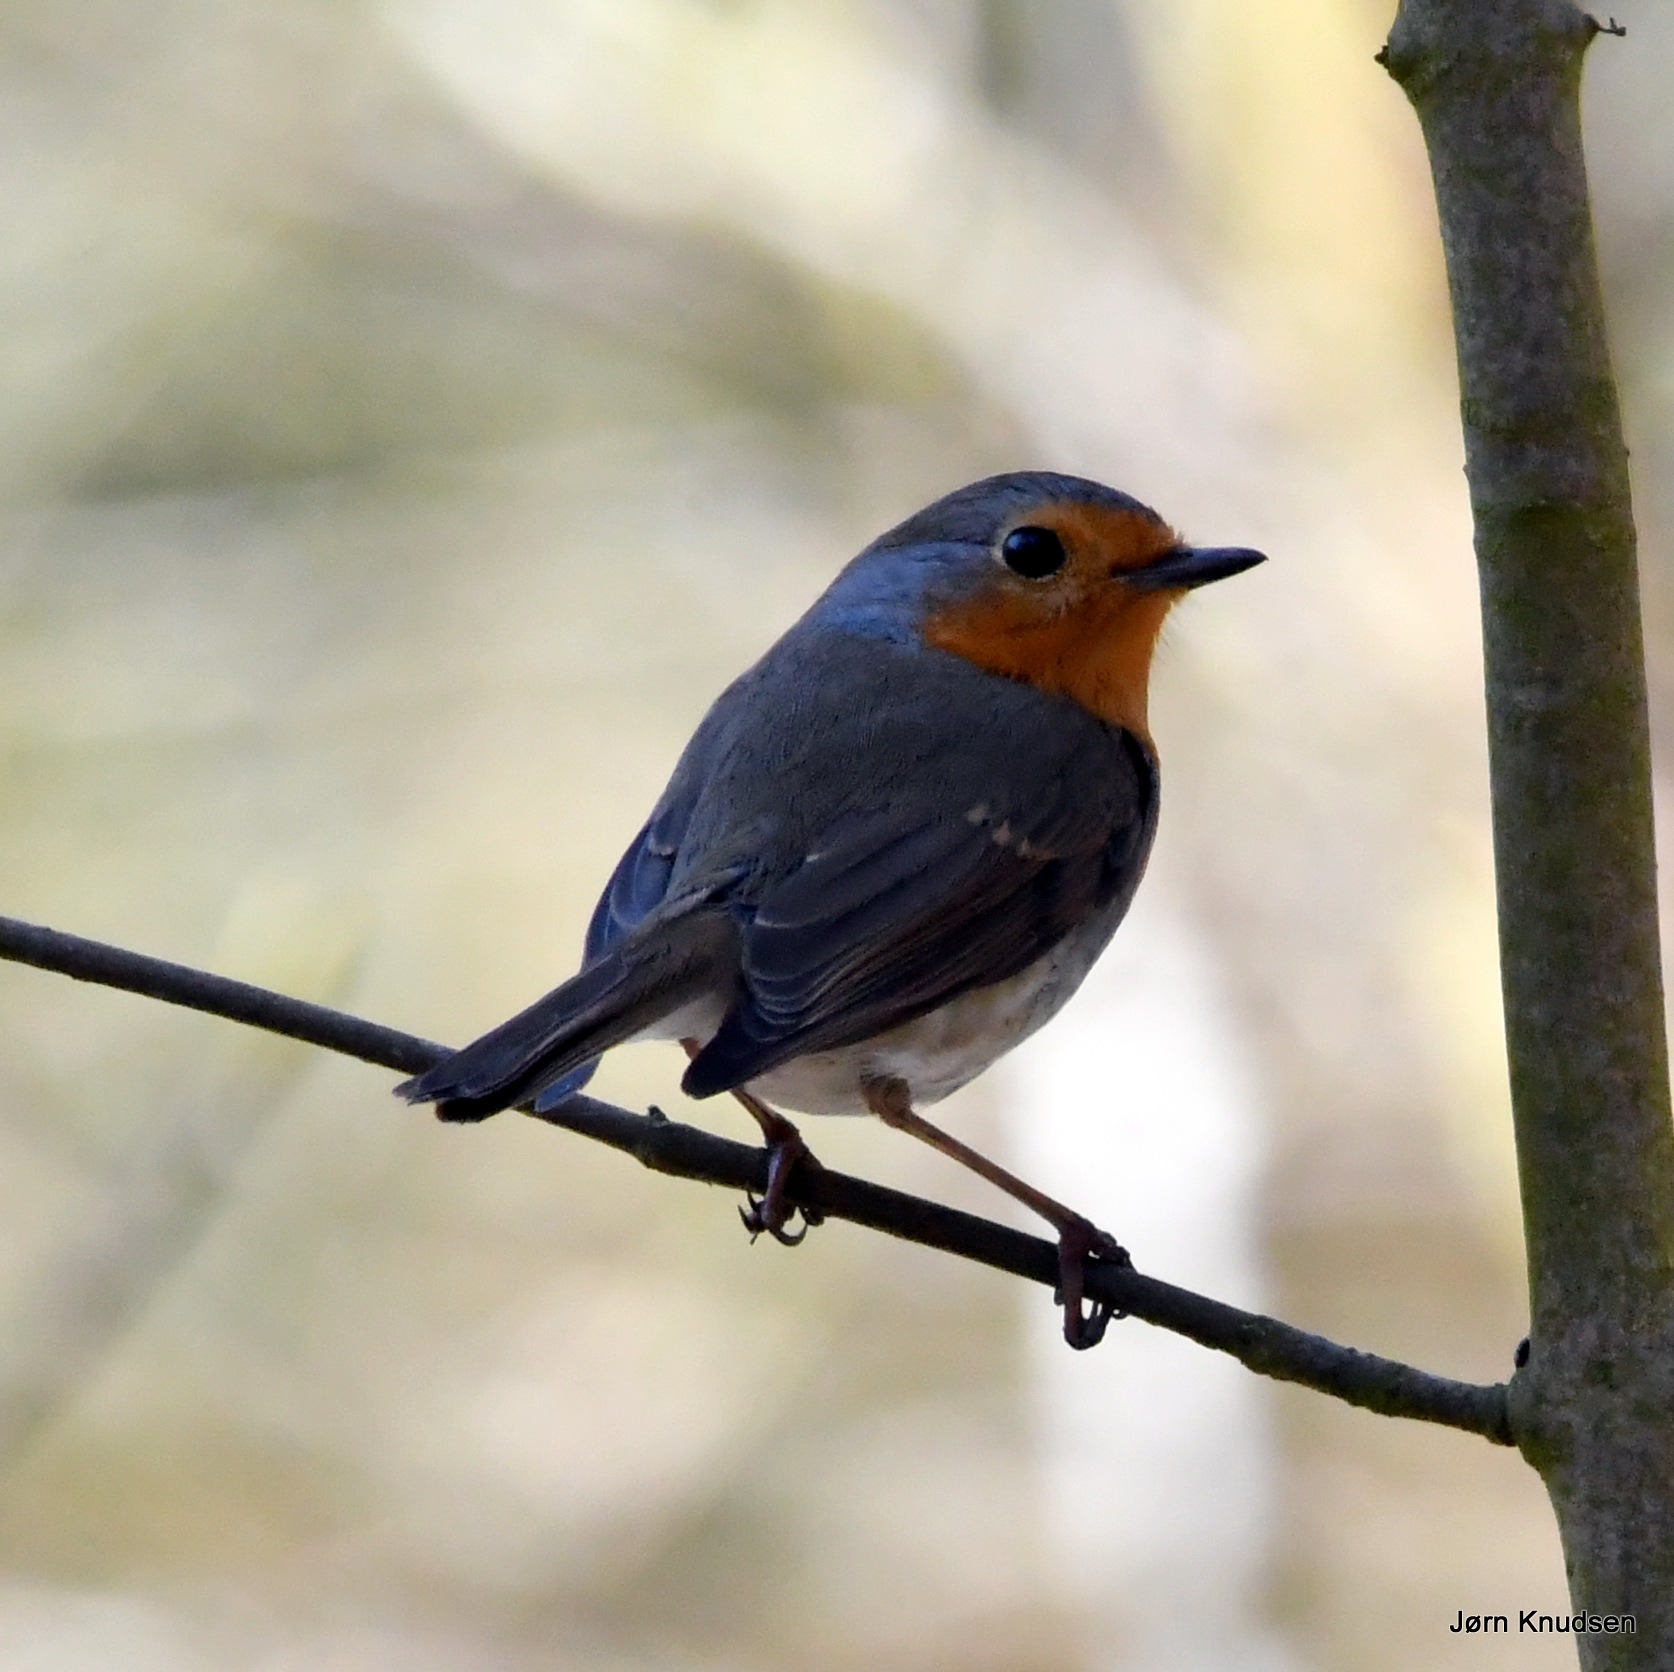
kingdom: Animalia
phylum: Chordata
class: Aves
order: Passeriformes
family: Muscicapidae
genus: Erithacus
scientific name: Erithacus rubecula
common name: Rødhals/rødkælk
